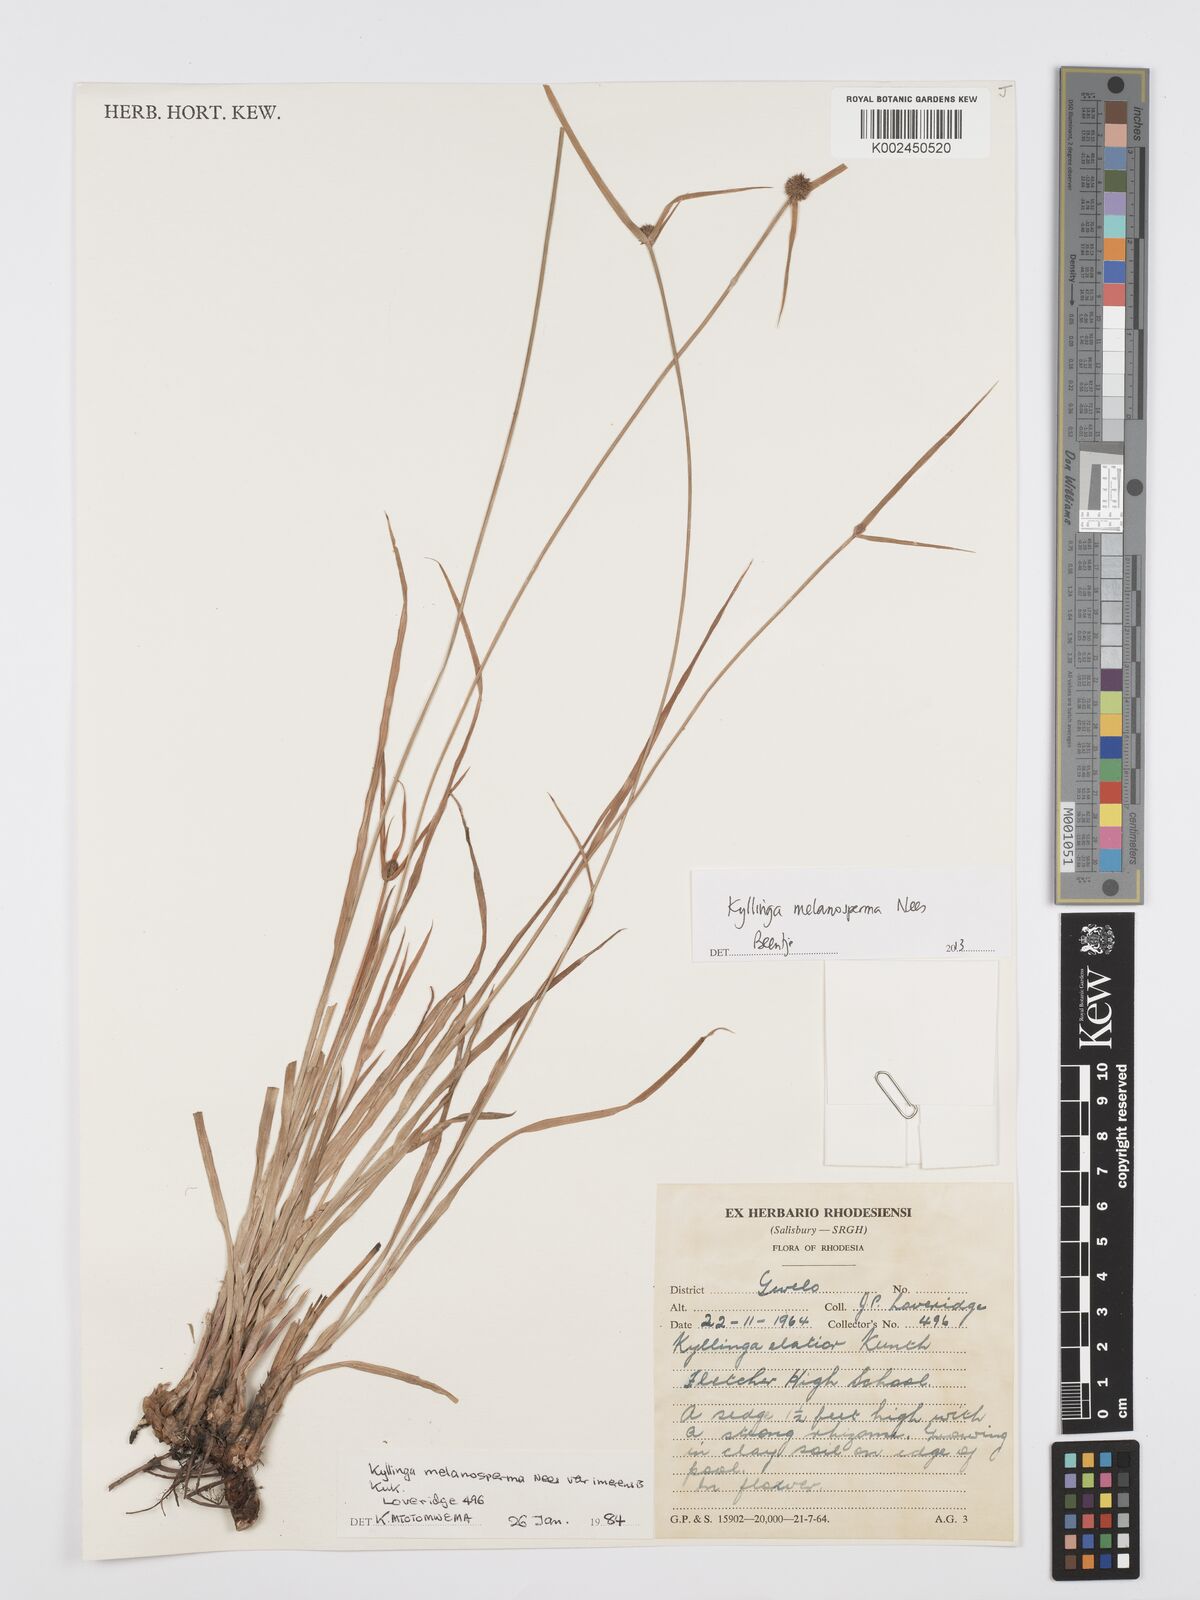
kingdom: Plantae
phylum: Tracheophyta
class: Liliopsida
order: Poales
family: Cyperaceae
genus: Cyperus
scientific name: Cyperus melanospermus
